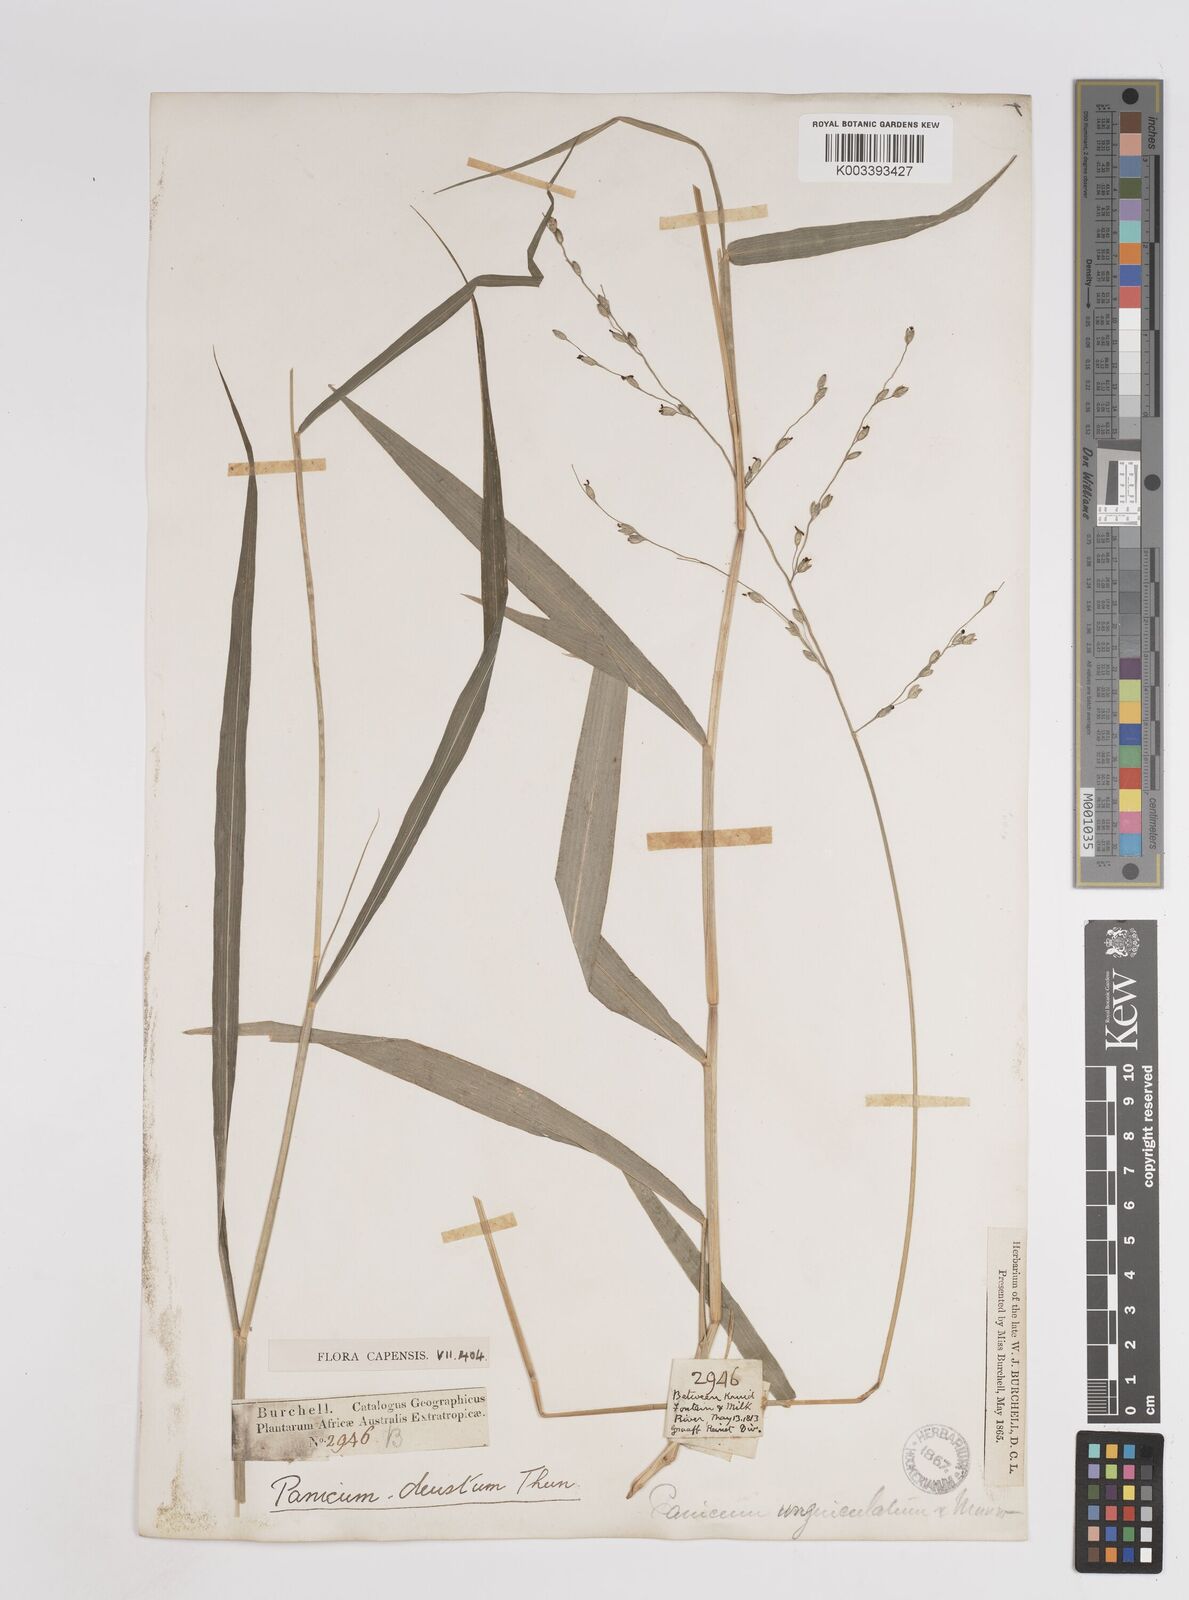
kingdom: Plantae
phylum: Tracheophyta
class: Liliopsida
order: Poales
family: Poaceae
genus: Panicum
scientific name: Panicum deustum
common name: Reed panicum
